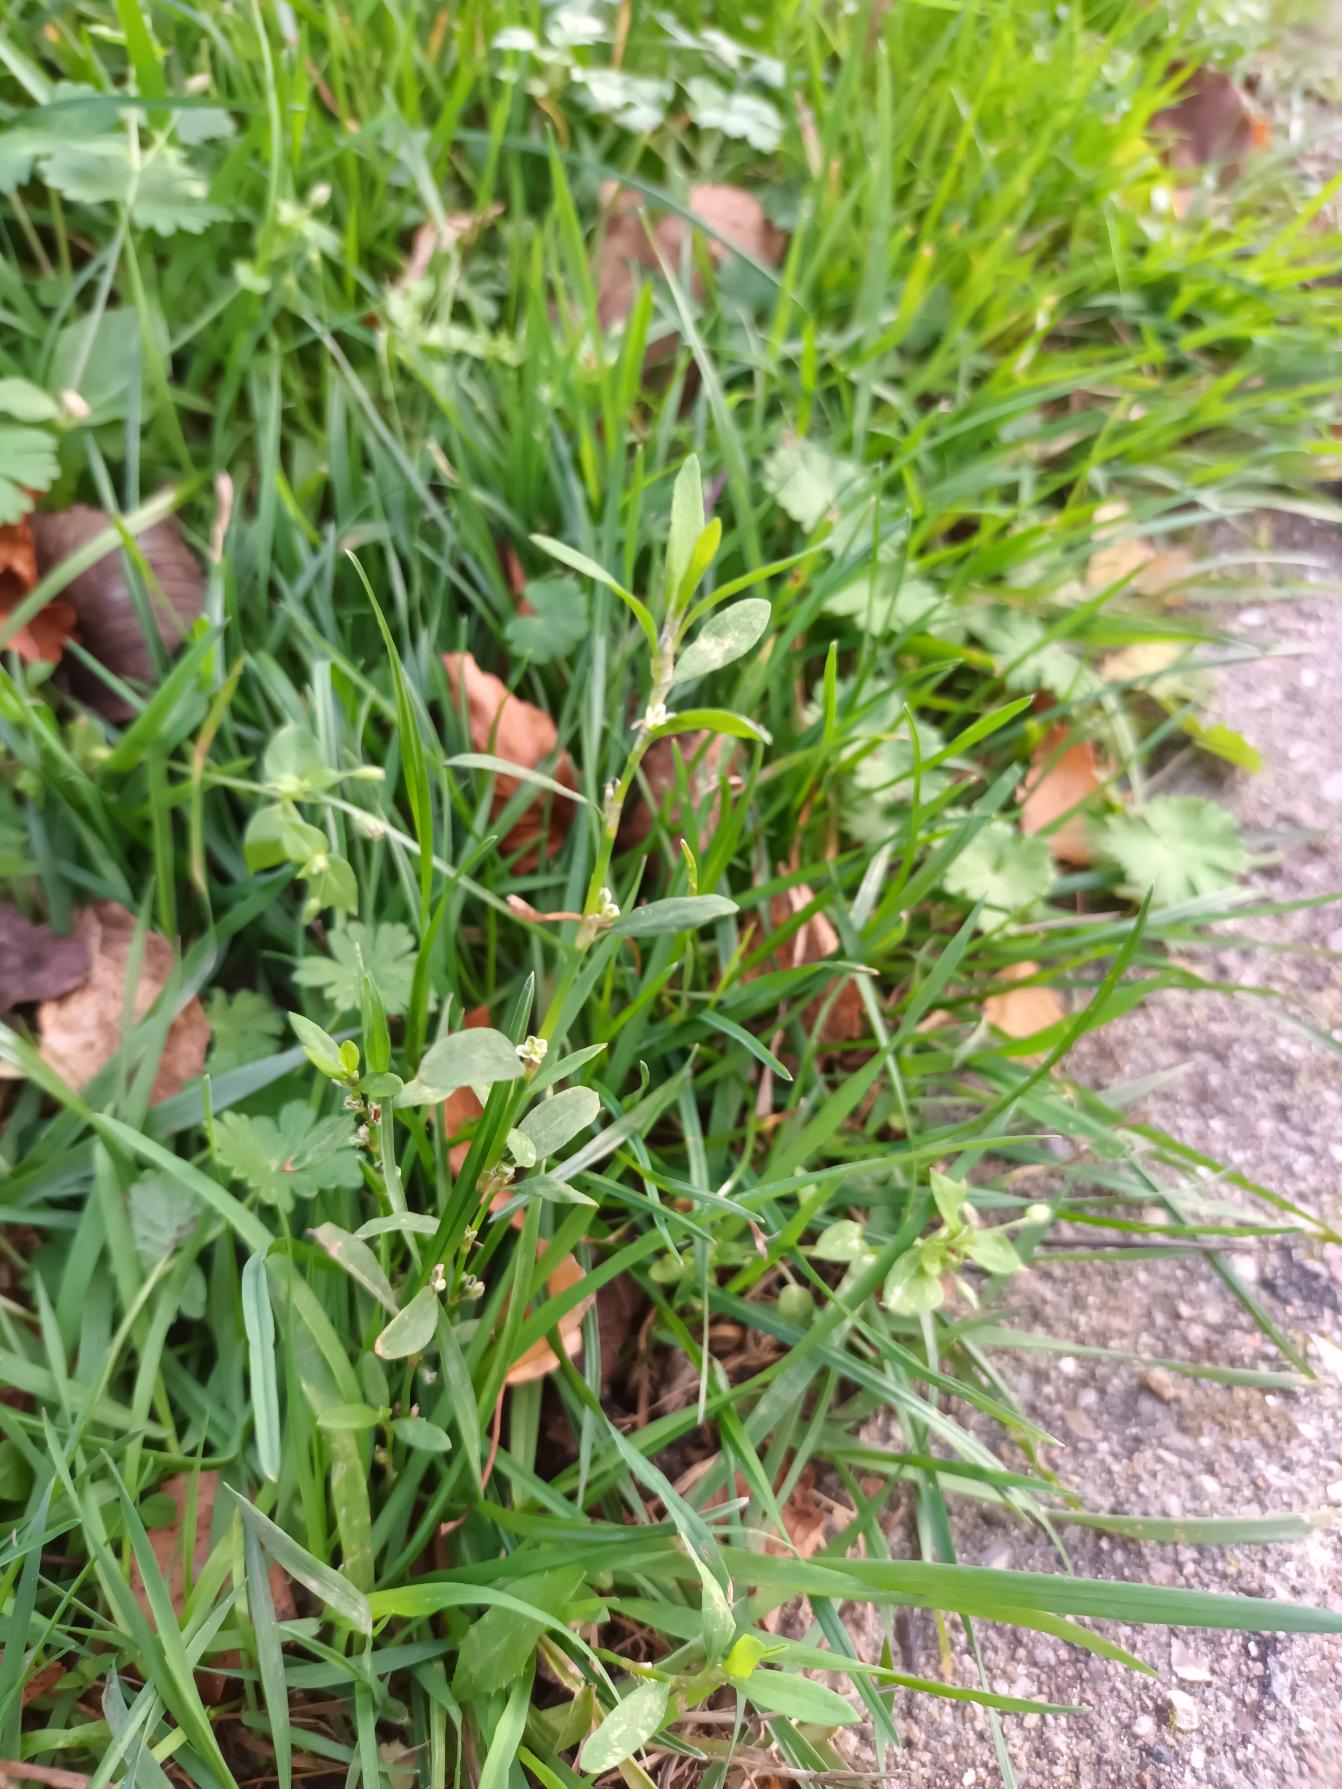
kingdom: Plantae
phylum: Tracheophyta
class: Magnoliopsida
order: Caryophyllales
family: Polygonaceae
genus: Polygonum
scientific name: Polygonum arenastrum
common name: Liggende vej-pileurt
